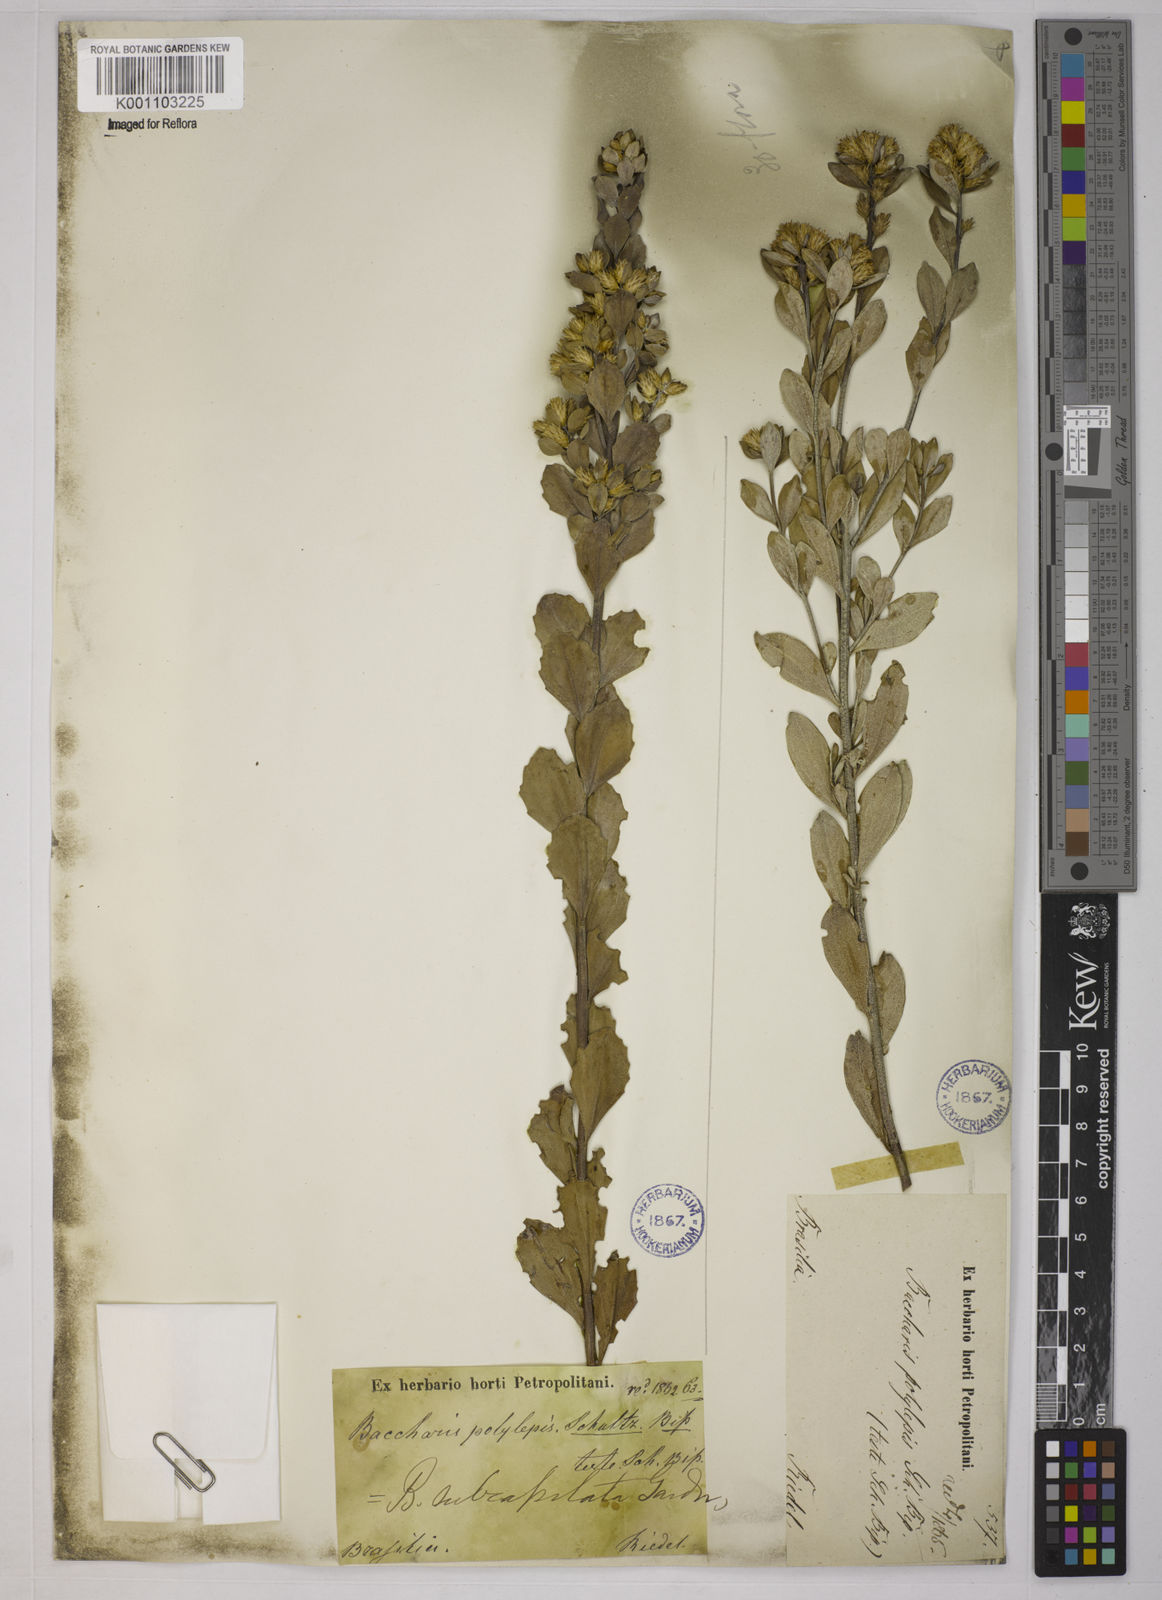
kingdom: Plantae
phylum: Tracheophyta
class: Magnoliopsida
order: Asterales
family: Asteraceae
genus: Baccharis
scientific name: Baccharis subdentata
